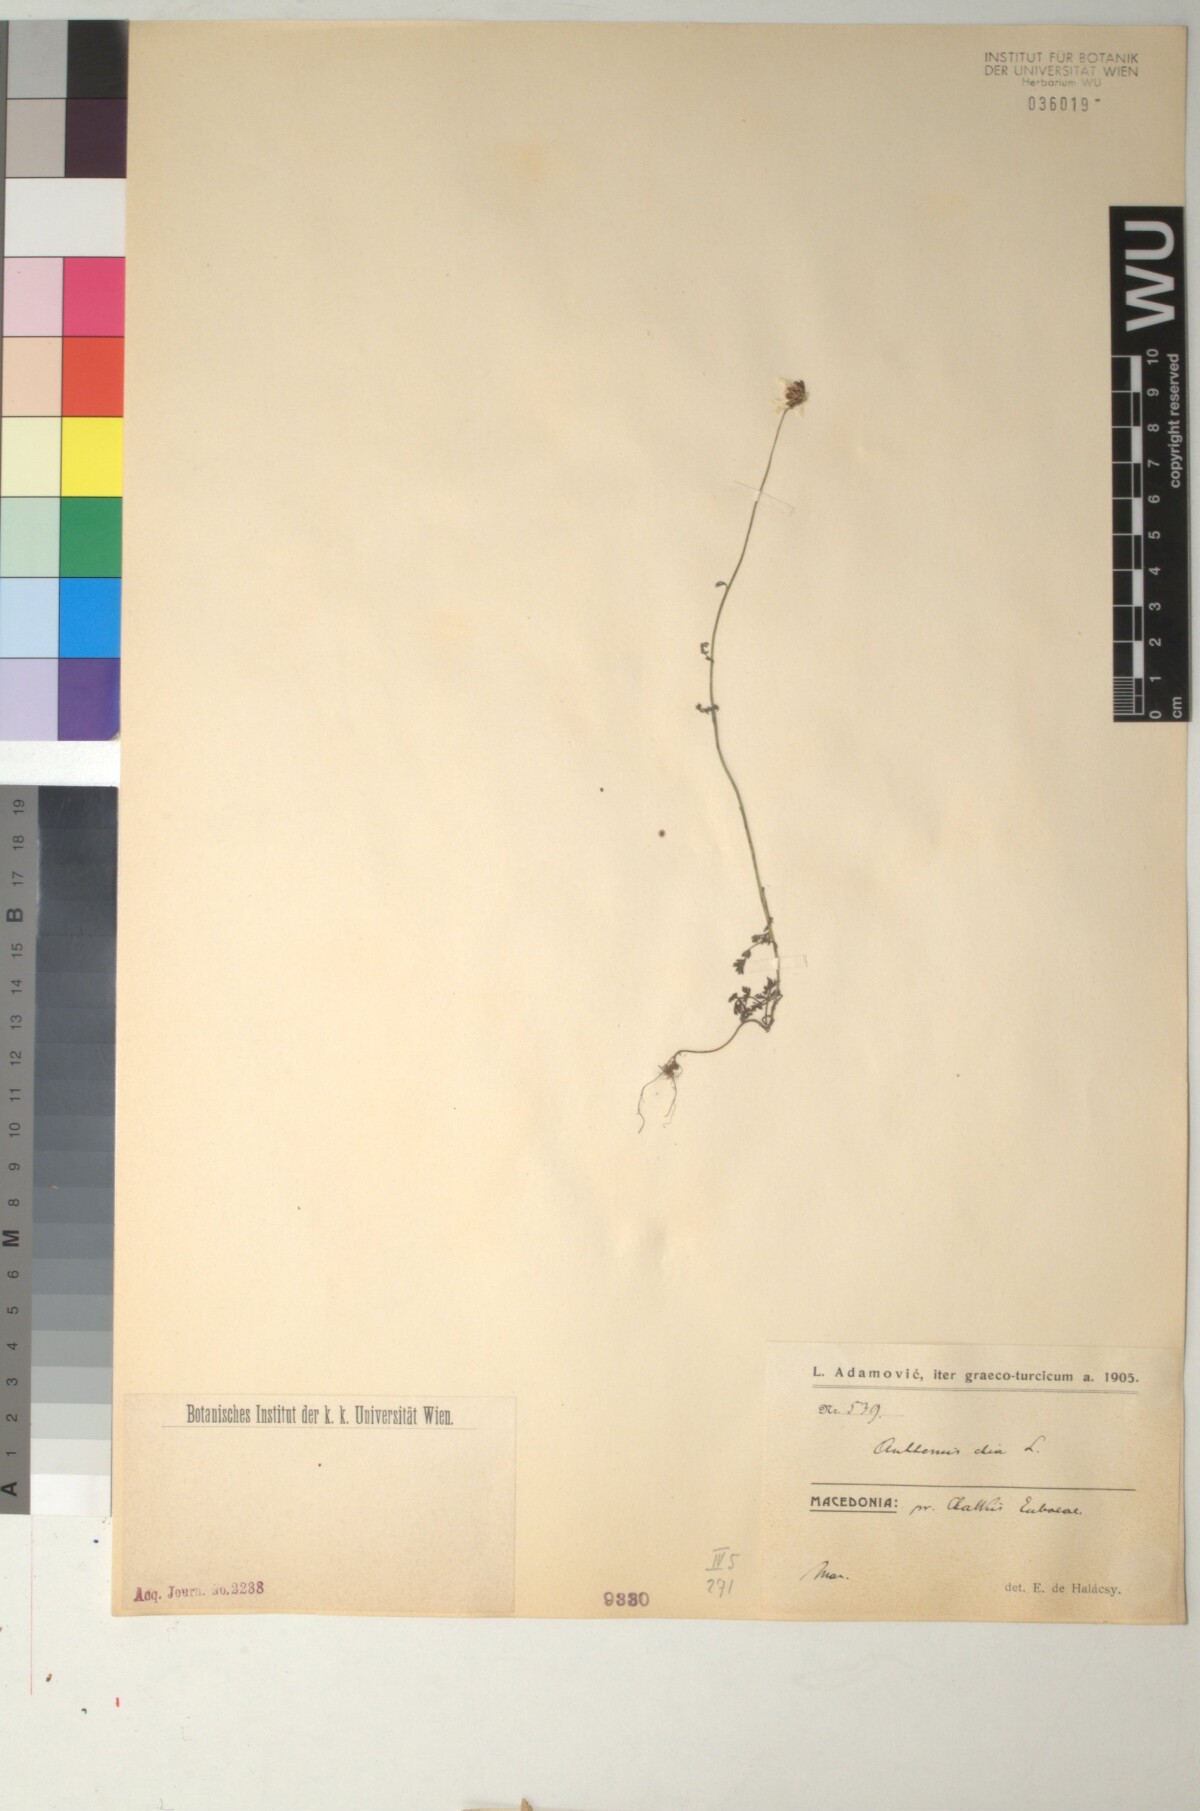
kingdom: Plantae
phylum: Tracheophyta
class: Magnoliopsida
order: Asterales
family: Asteraceae
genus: Anthemis
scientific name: Anthemis chia
